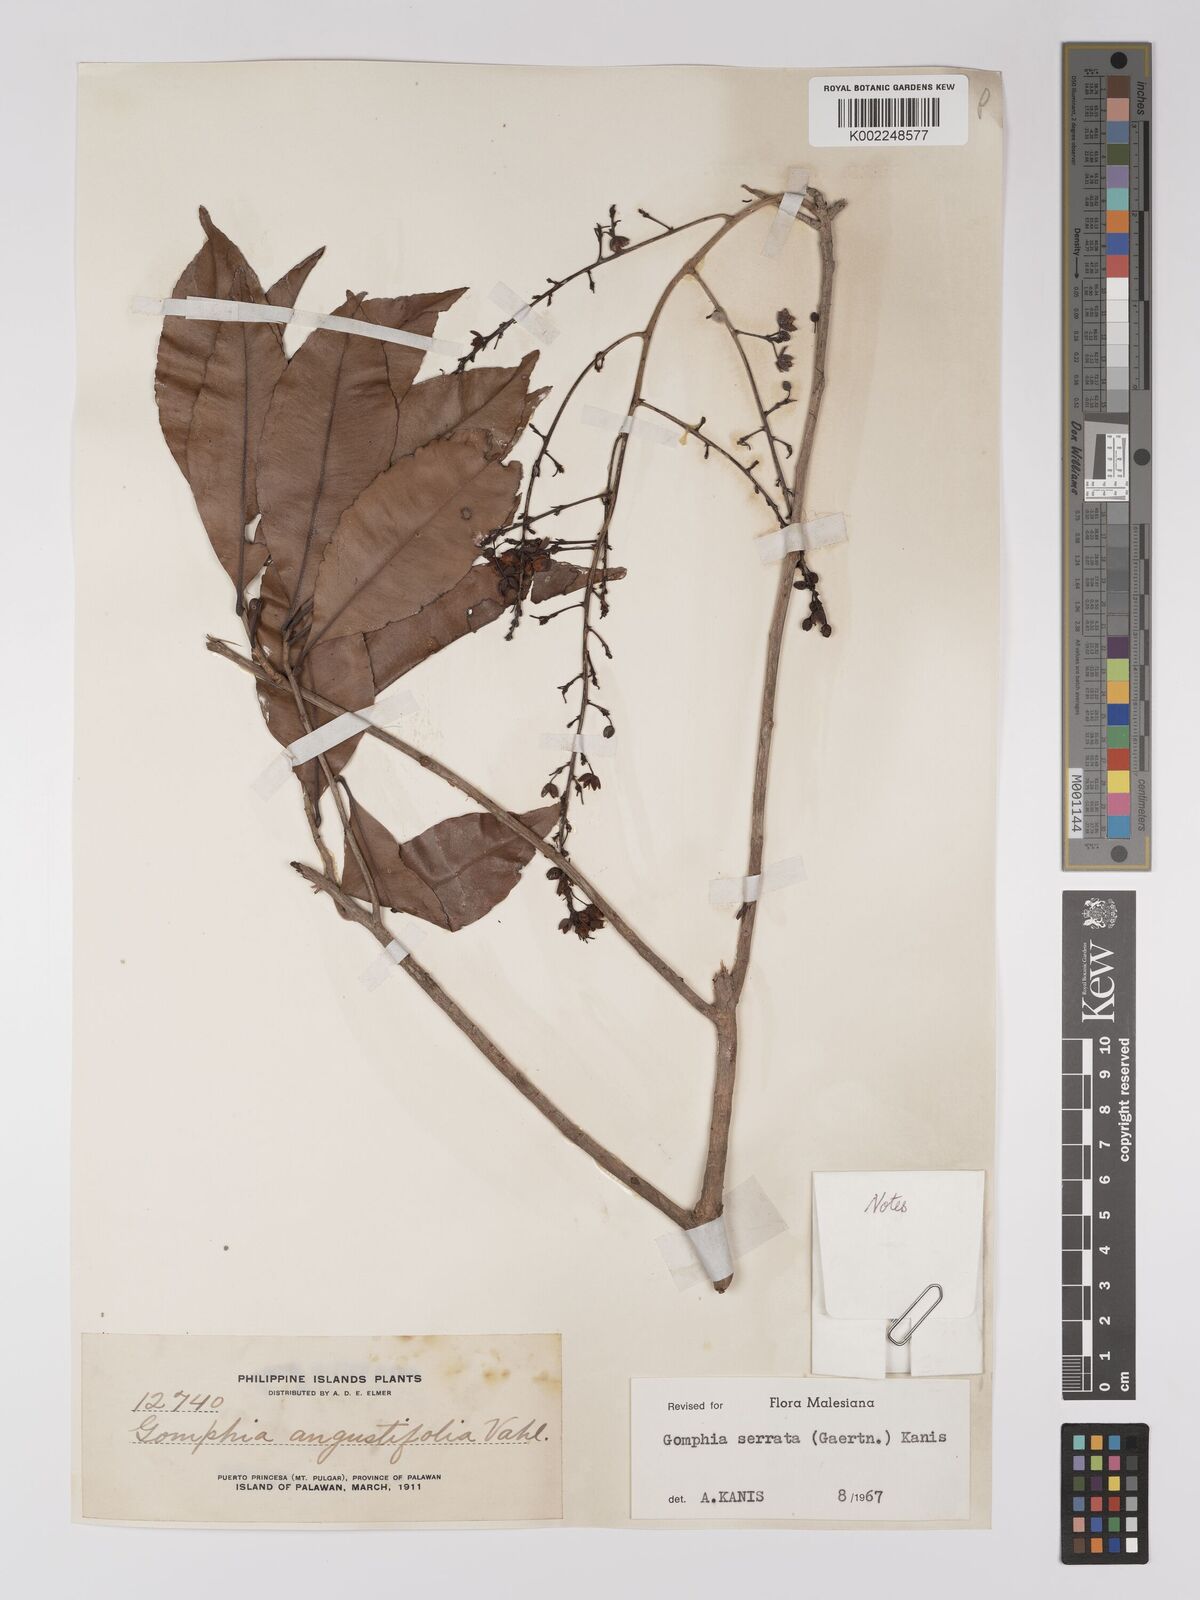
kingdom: Plantae
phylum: Tracheophyta
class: Magnoliopsida
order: Malpighiales
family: Ochnaceae
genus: Gomphia
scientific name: Gomphia serrata
